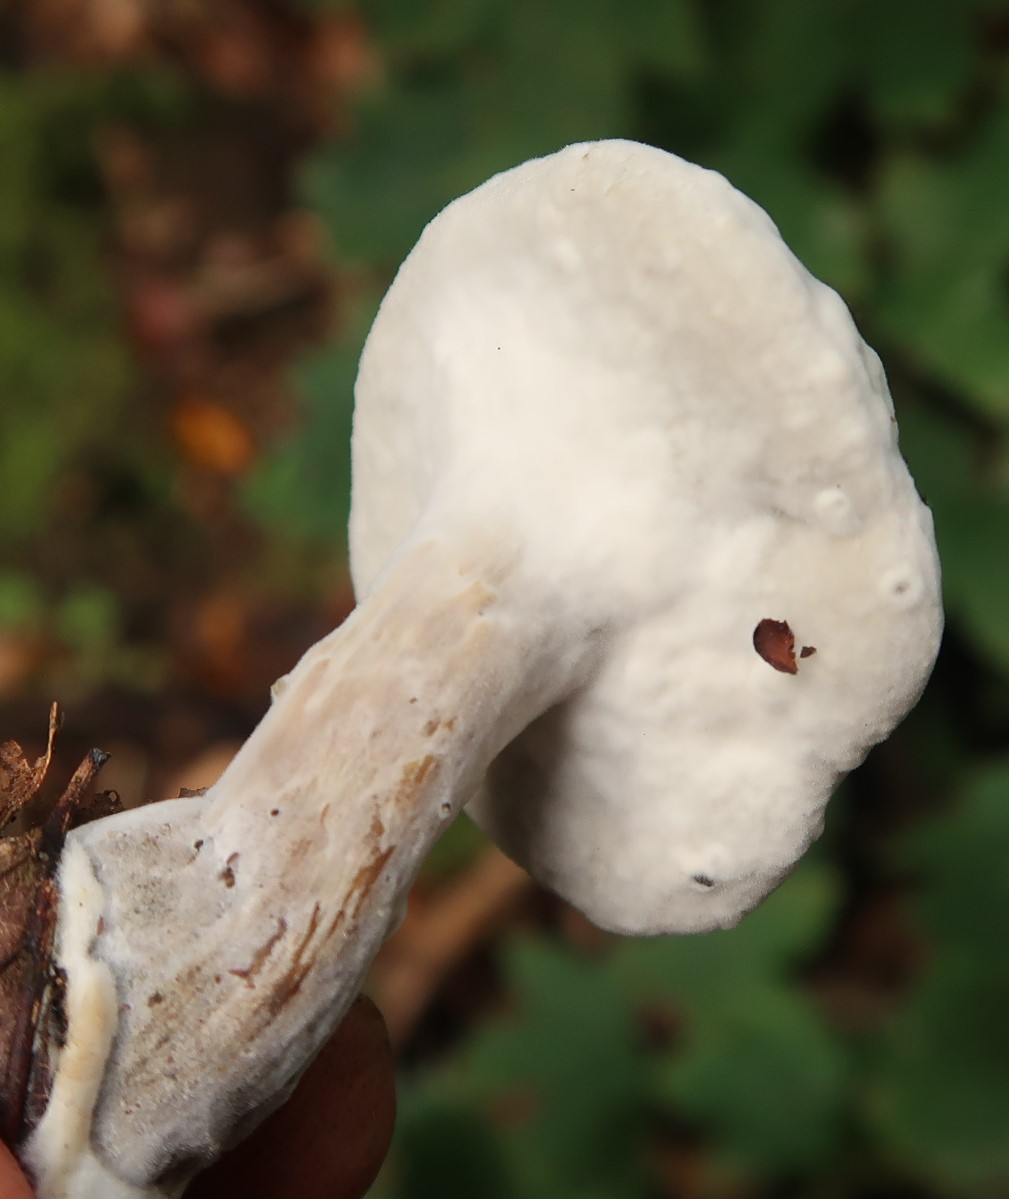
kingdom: Fungi
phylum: Ascomycota
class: Sordariomycetes
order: Hypocreales
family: Hypocreaceae
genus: Sepedonium
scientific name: Sepedonium
